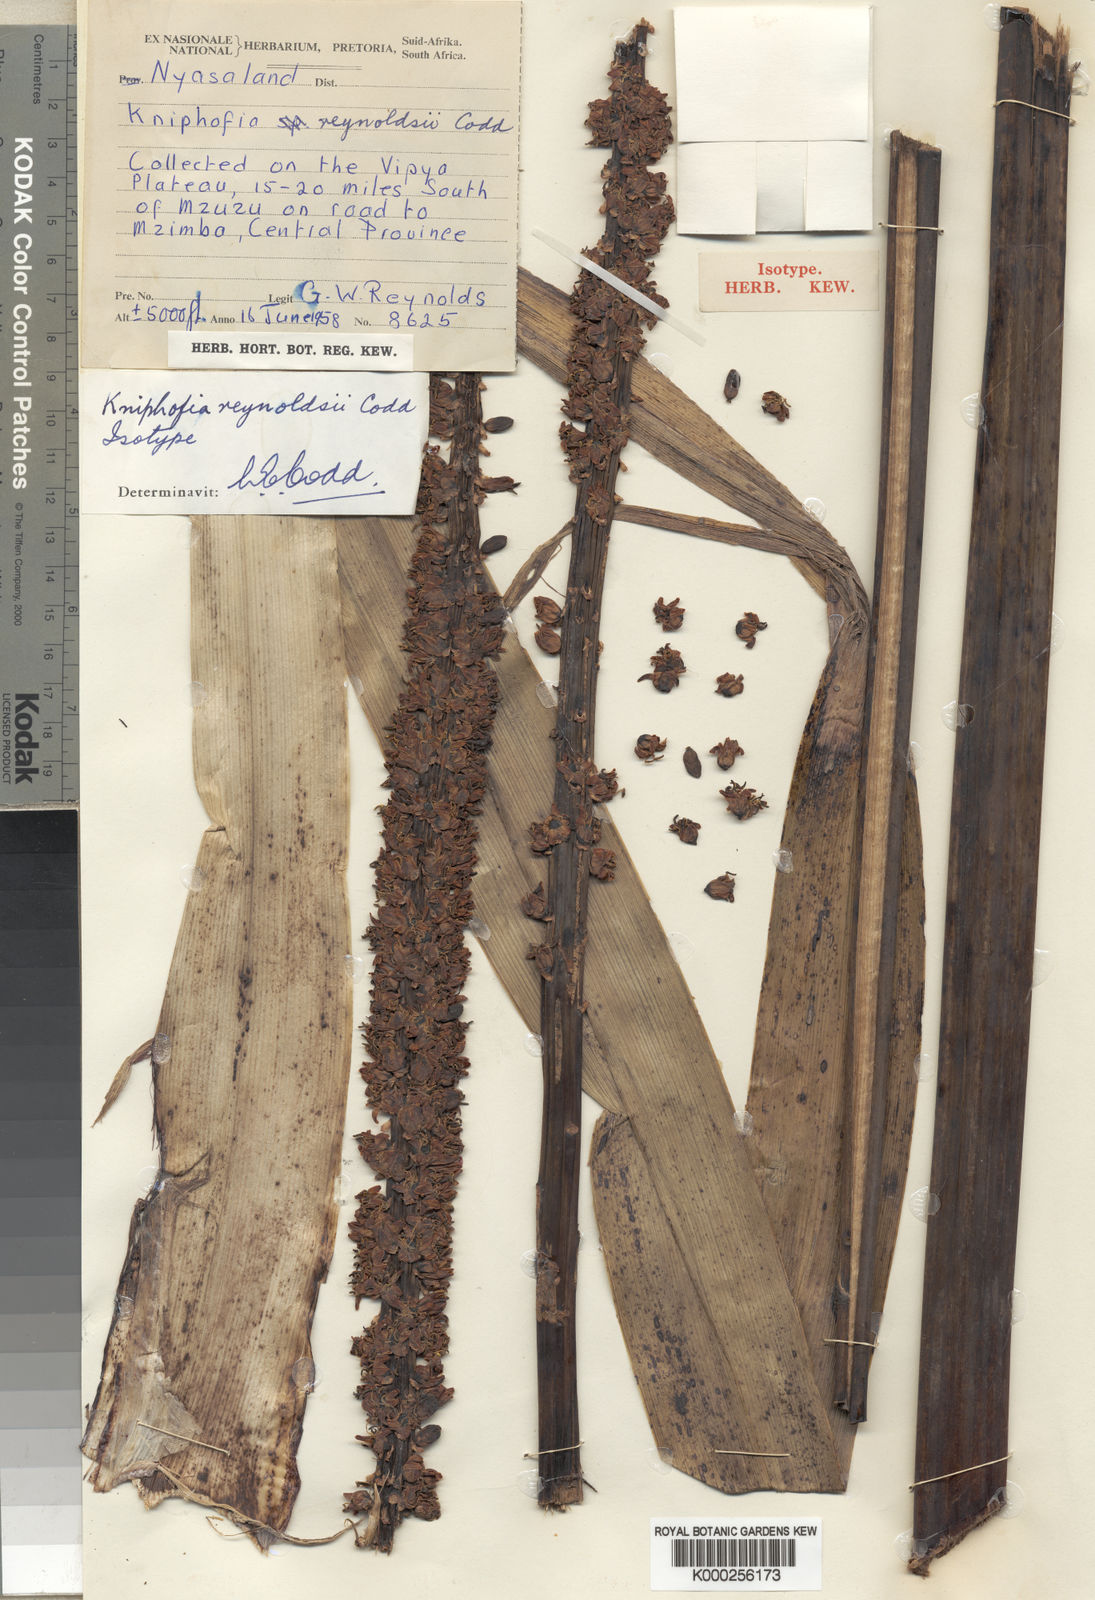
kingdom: Plantae
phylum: Tracheophyta
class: Liliopsida
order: Asparagales
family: Asphodelaceae
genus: Kniphofia
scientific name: Kniphofia reynoldsii
